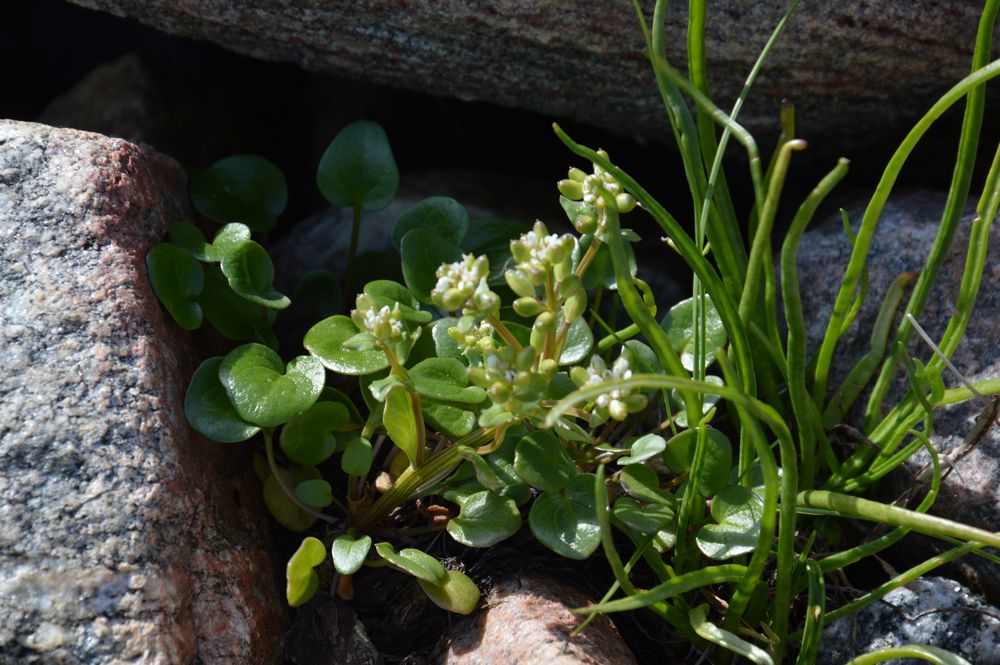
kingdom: Plantae
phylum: Tracheophyta
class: Magnoliopsida
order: Brassicales
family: Brassicaceae
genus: Cochlearia
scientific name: Cochlearia groenlandica
